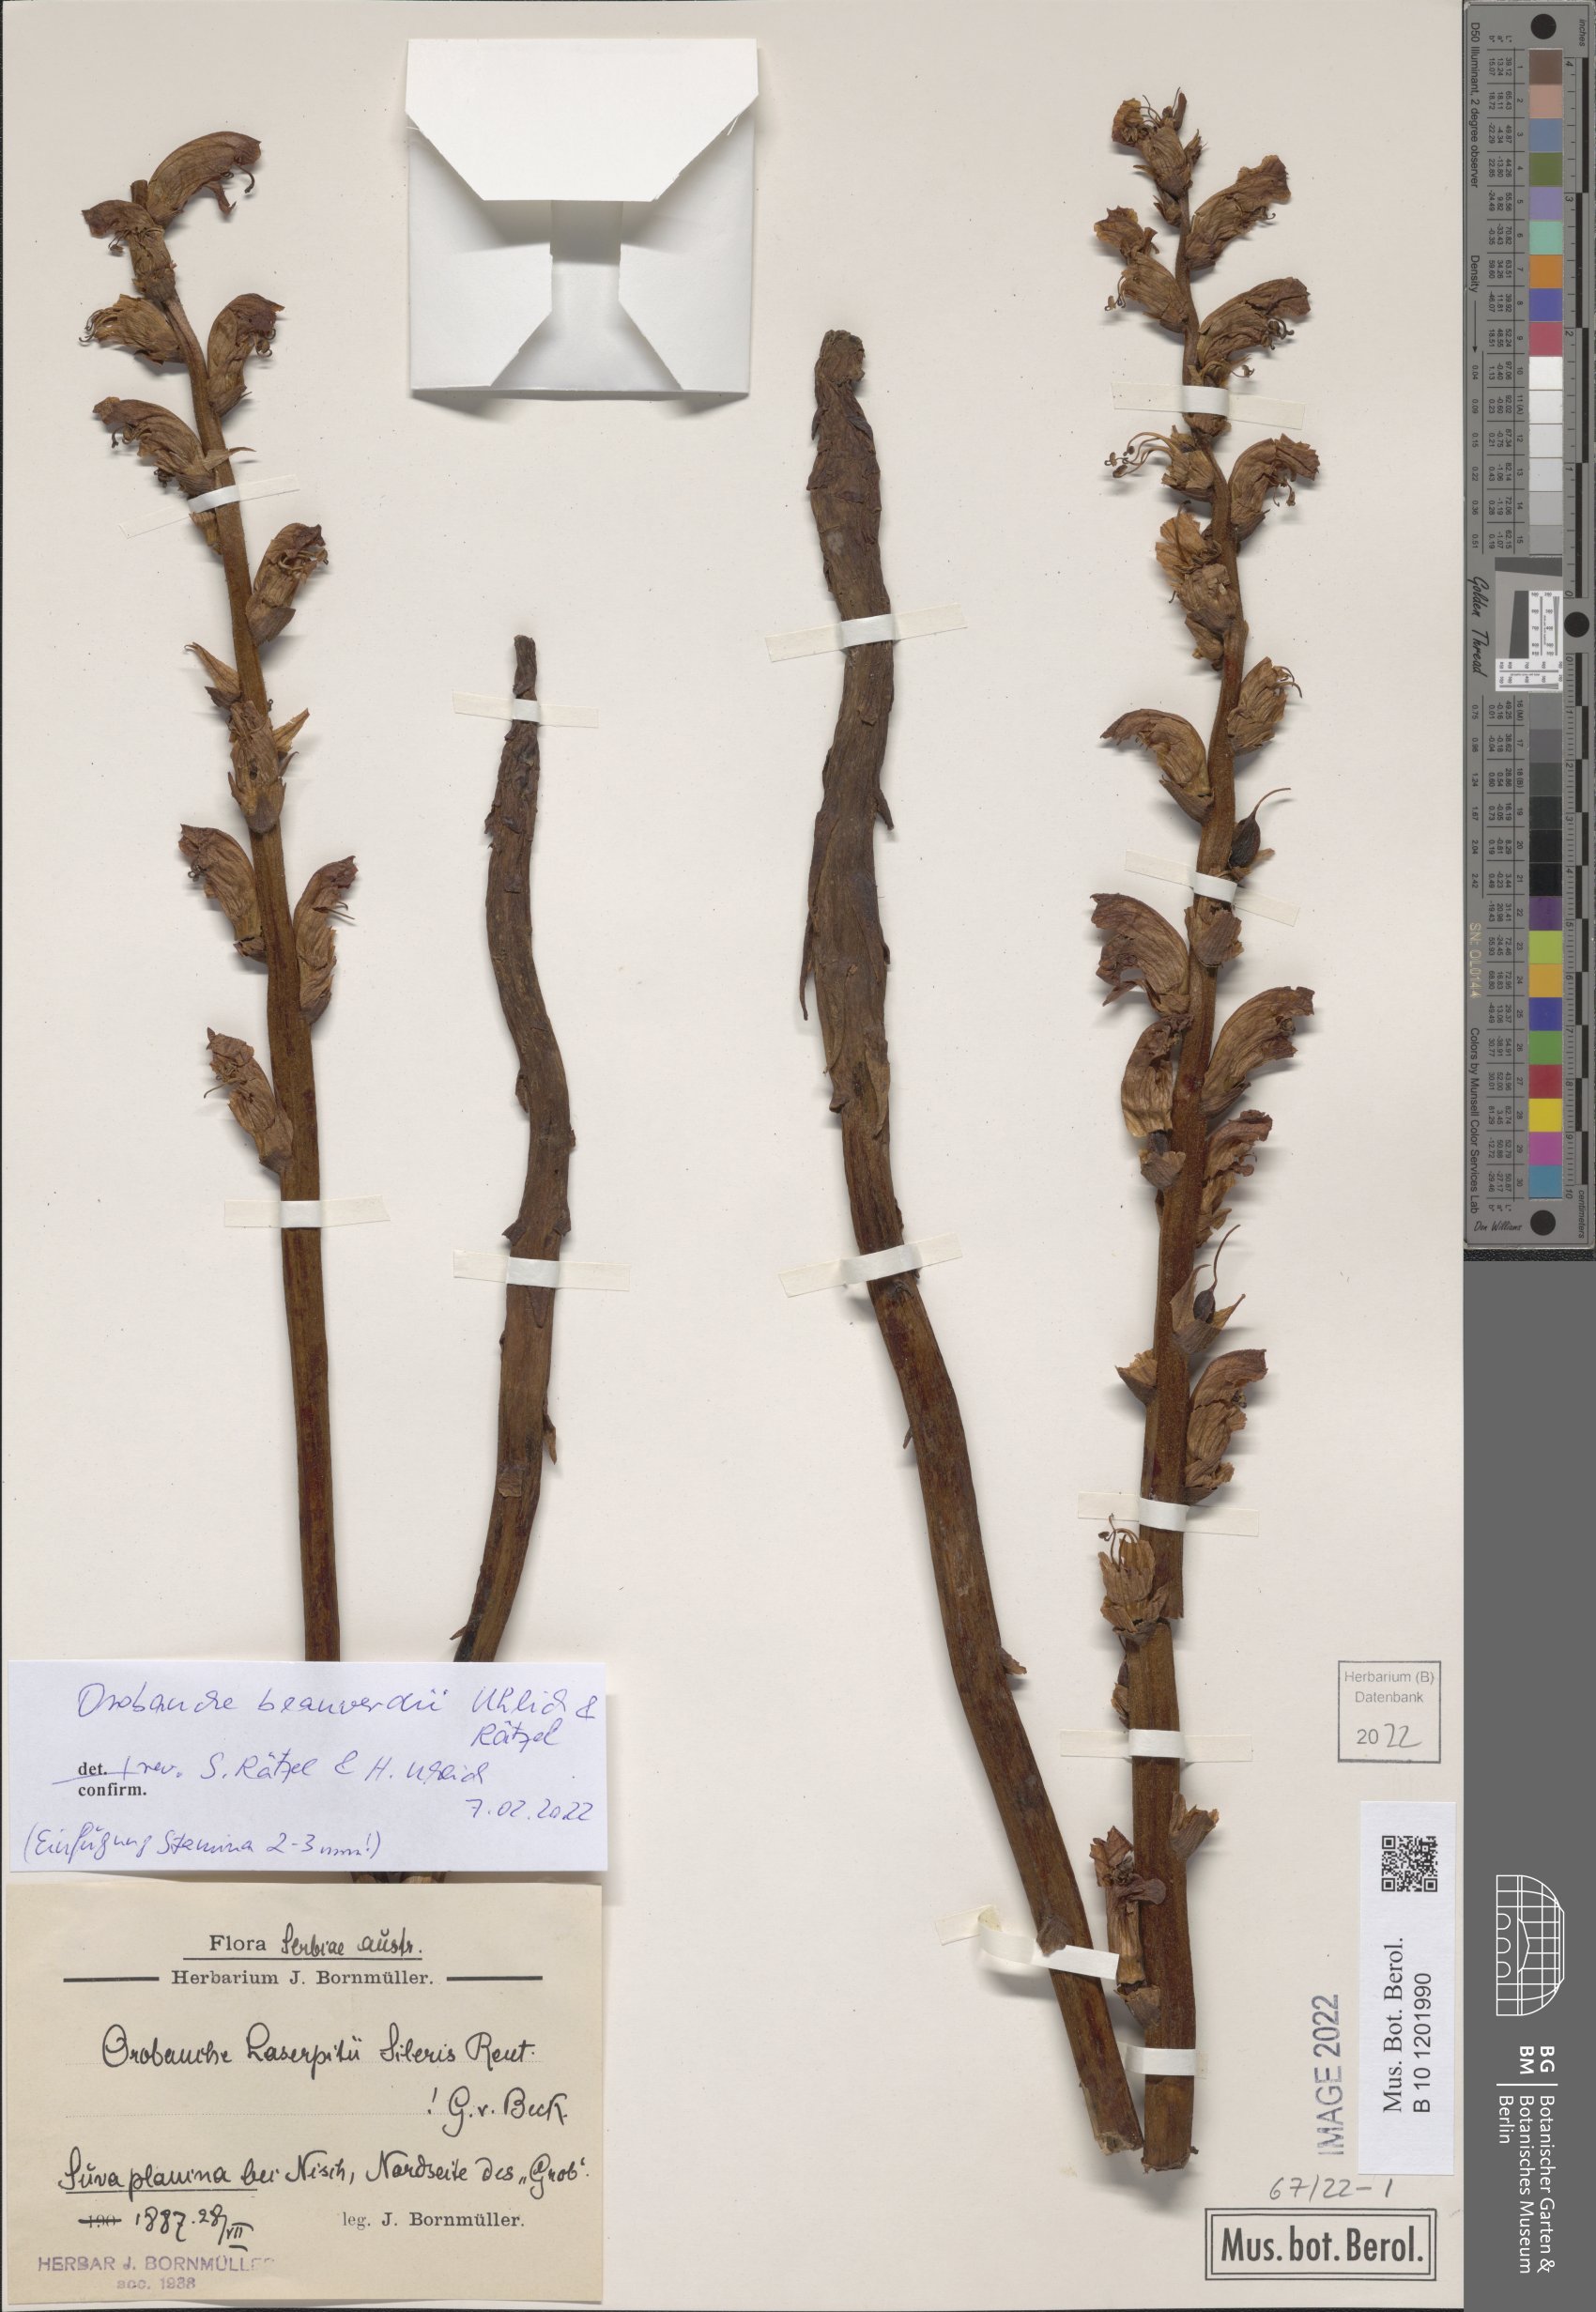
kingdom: Plantae
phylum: Tracheophyta
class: Magnoliopsida
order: Lamiales
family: Orobanchaceae
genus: Orobanche
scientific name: Orobanche beauverdii
